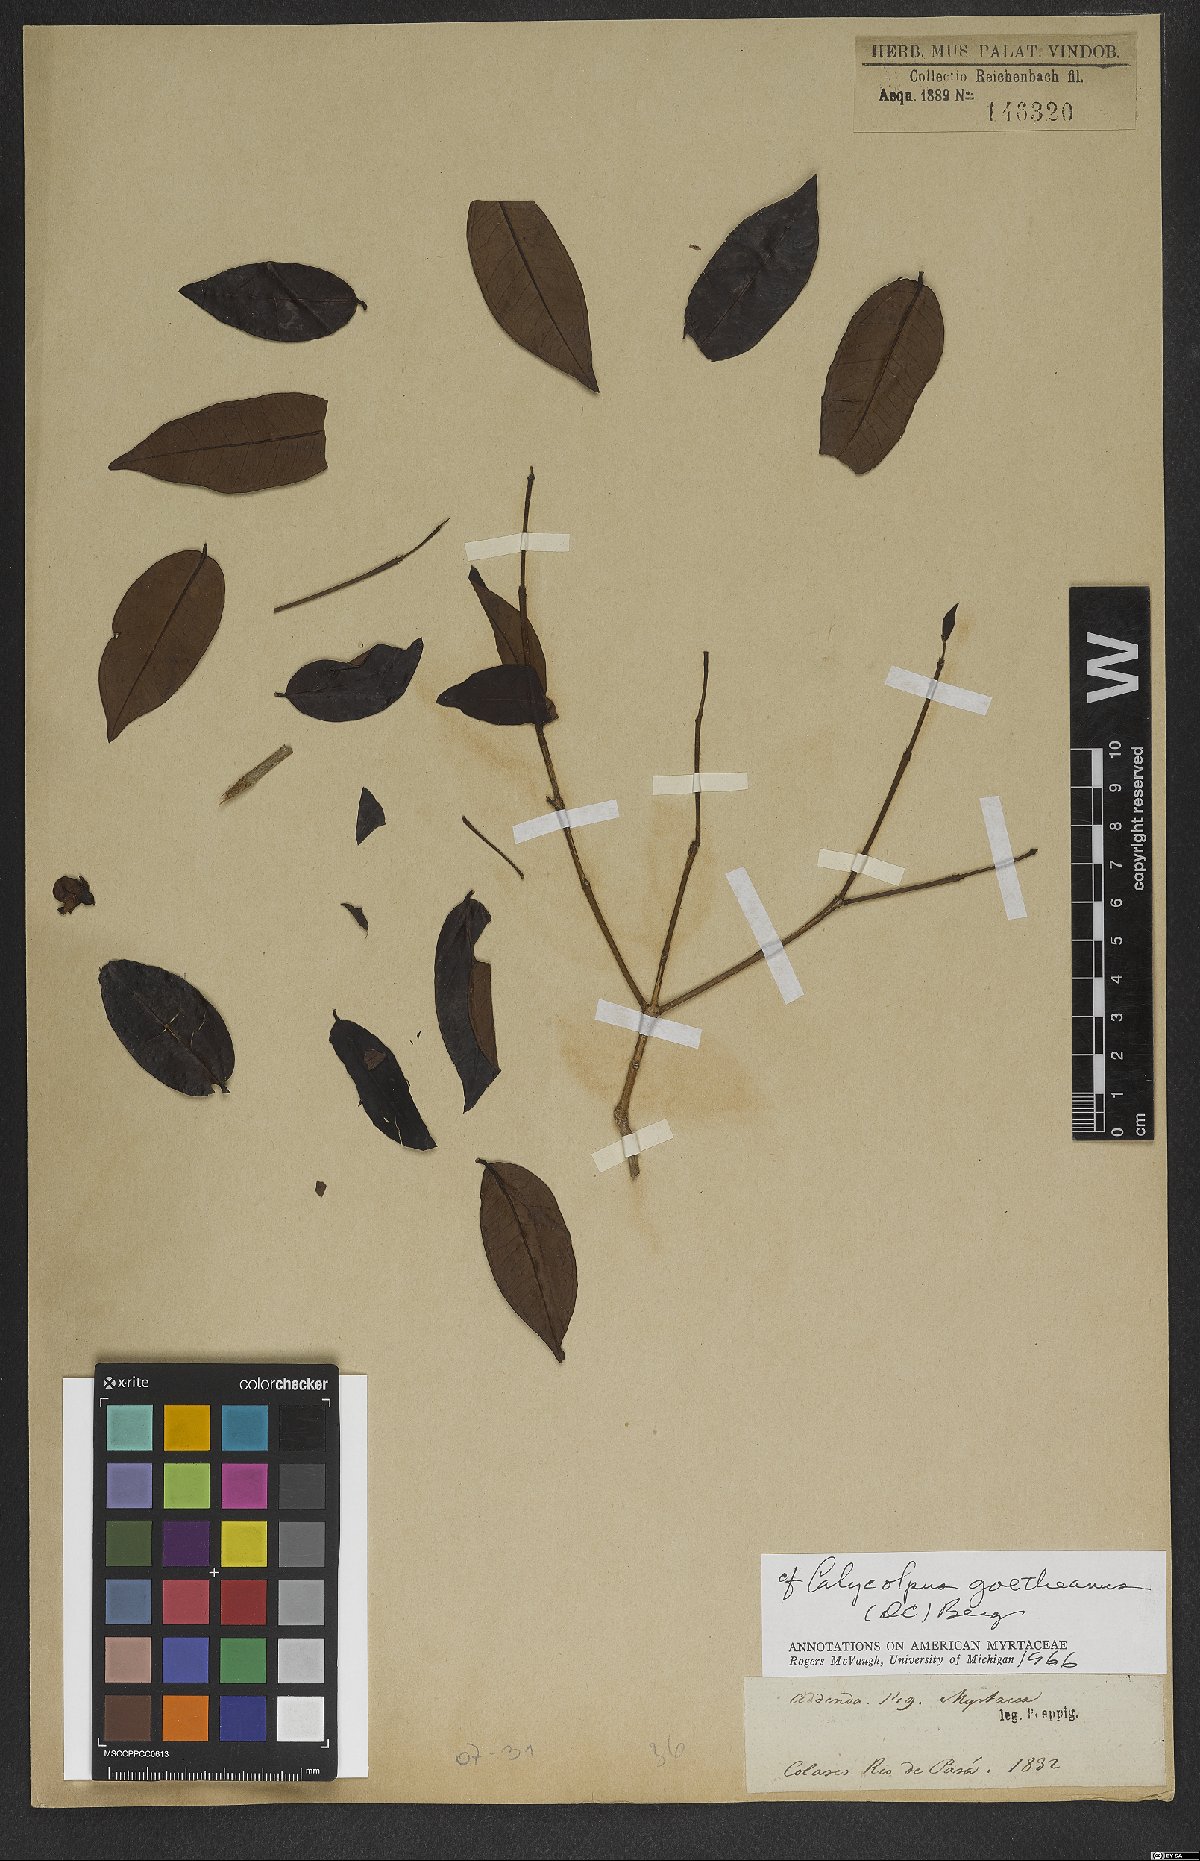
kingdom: Plantae
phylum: Tracheophyta
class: Magnoliopsida
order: Myrtales
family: Myrtaceae
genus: Calycolpus
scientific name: Calycolpus goetheanus
